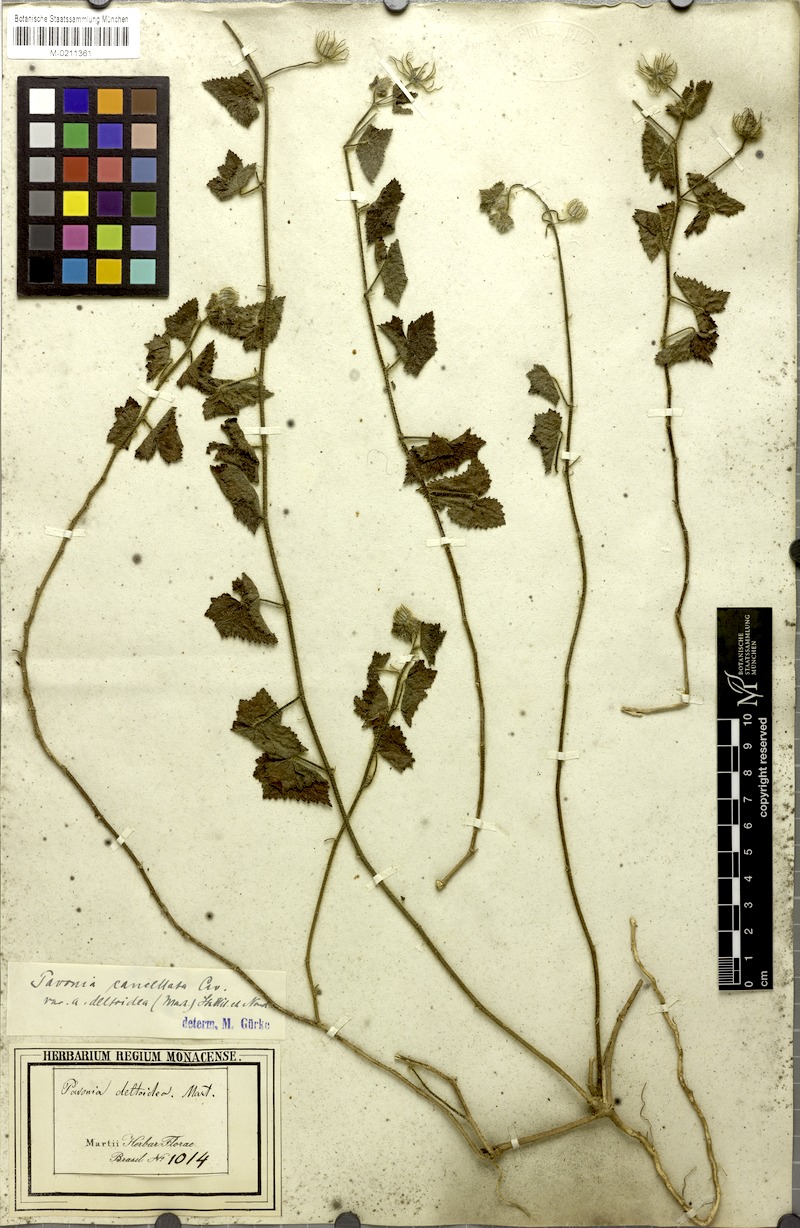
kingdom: Plantae
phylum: Tracheophyta
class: Magnoliopsida
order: Malvales
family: Malvaceae
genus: Pavonia
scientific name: Pavonia cancellata
